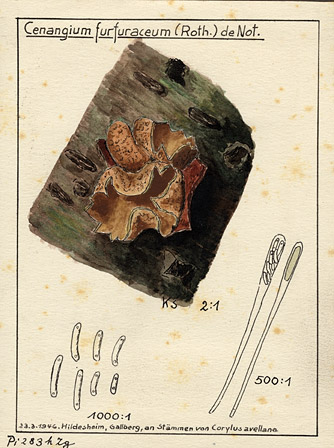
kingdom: Plantae
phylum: Tracheophyta
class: Magnoliopsida
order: Fagales
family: Betulaceae
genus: Corylus
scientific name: Corylus avellana
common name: European hazel
